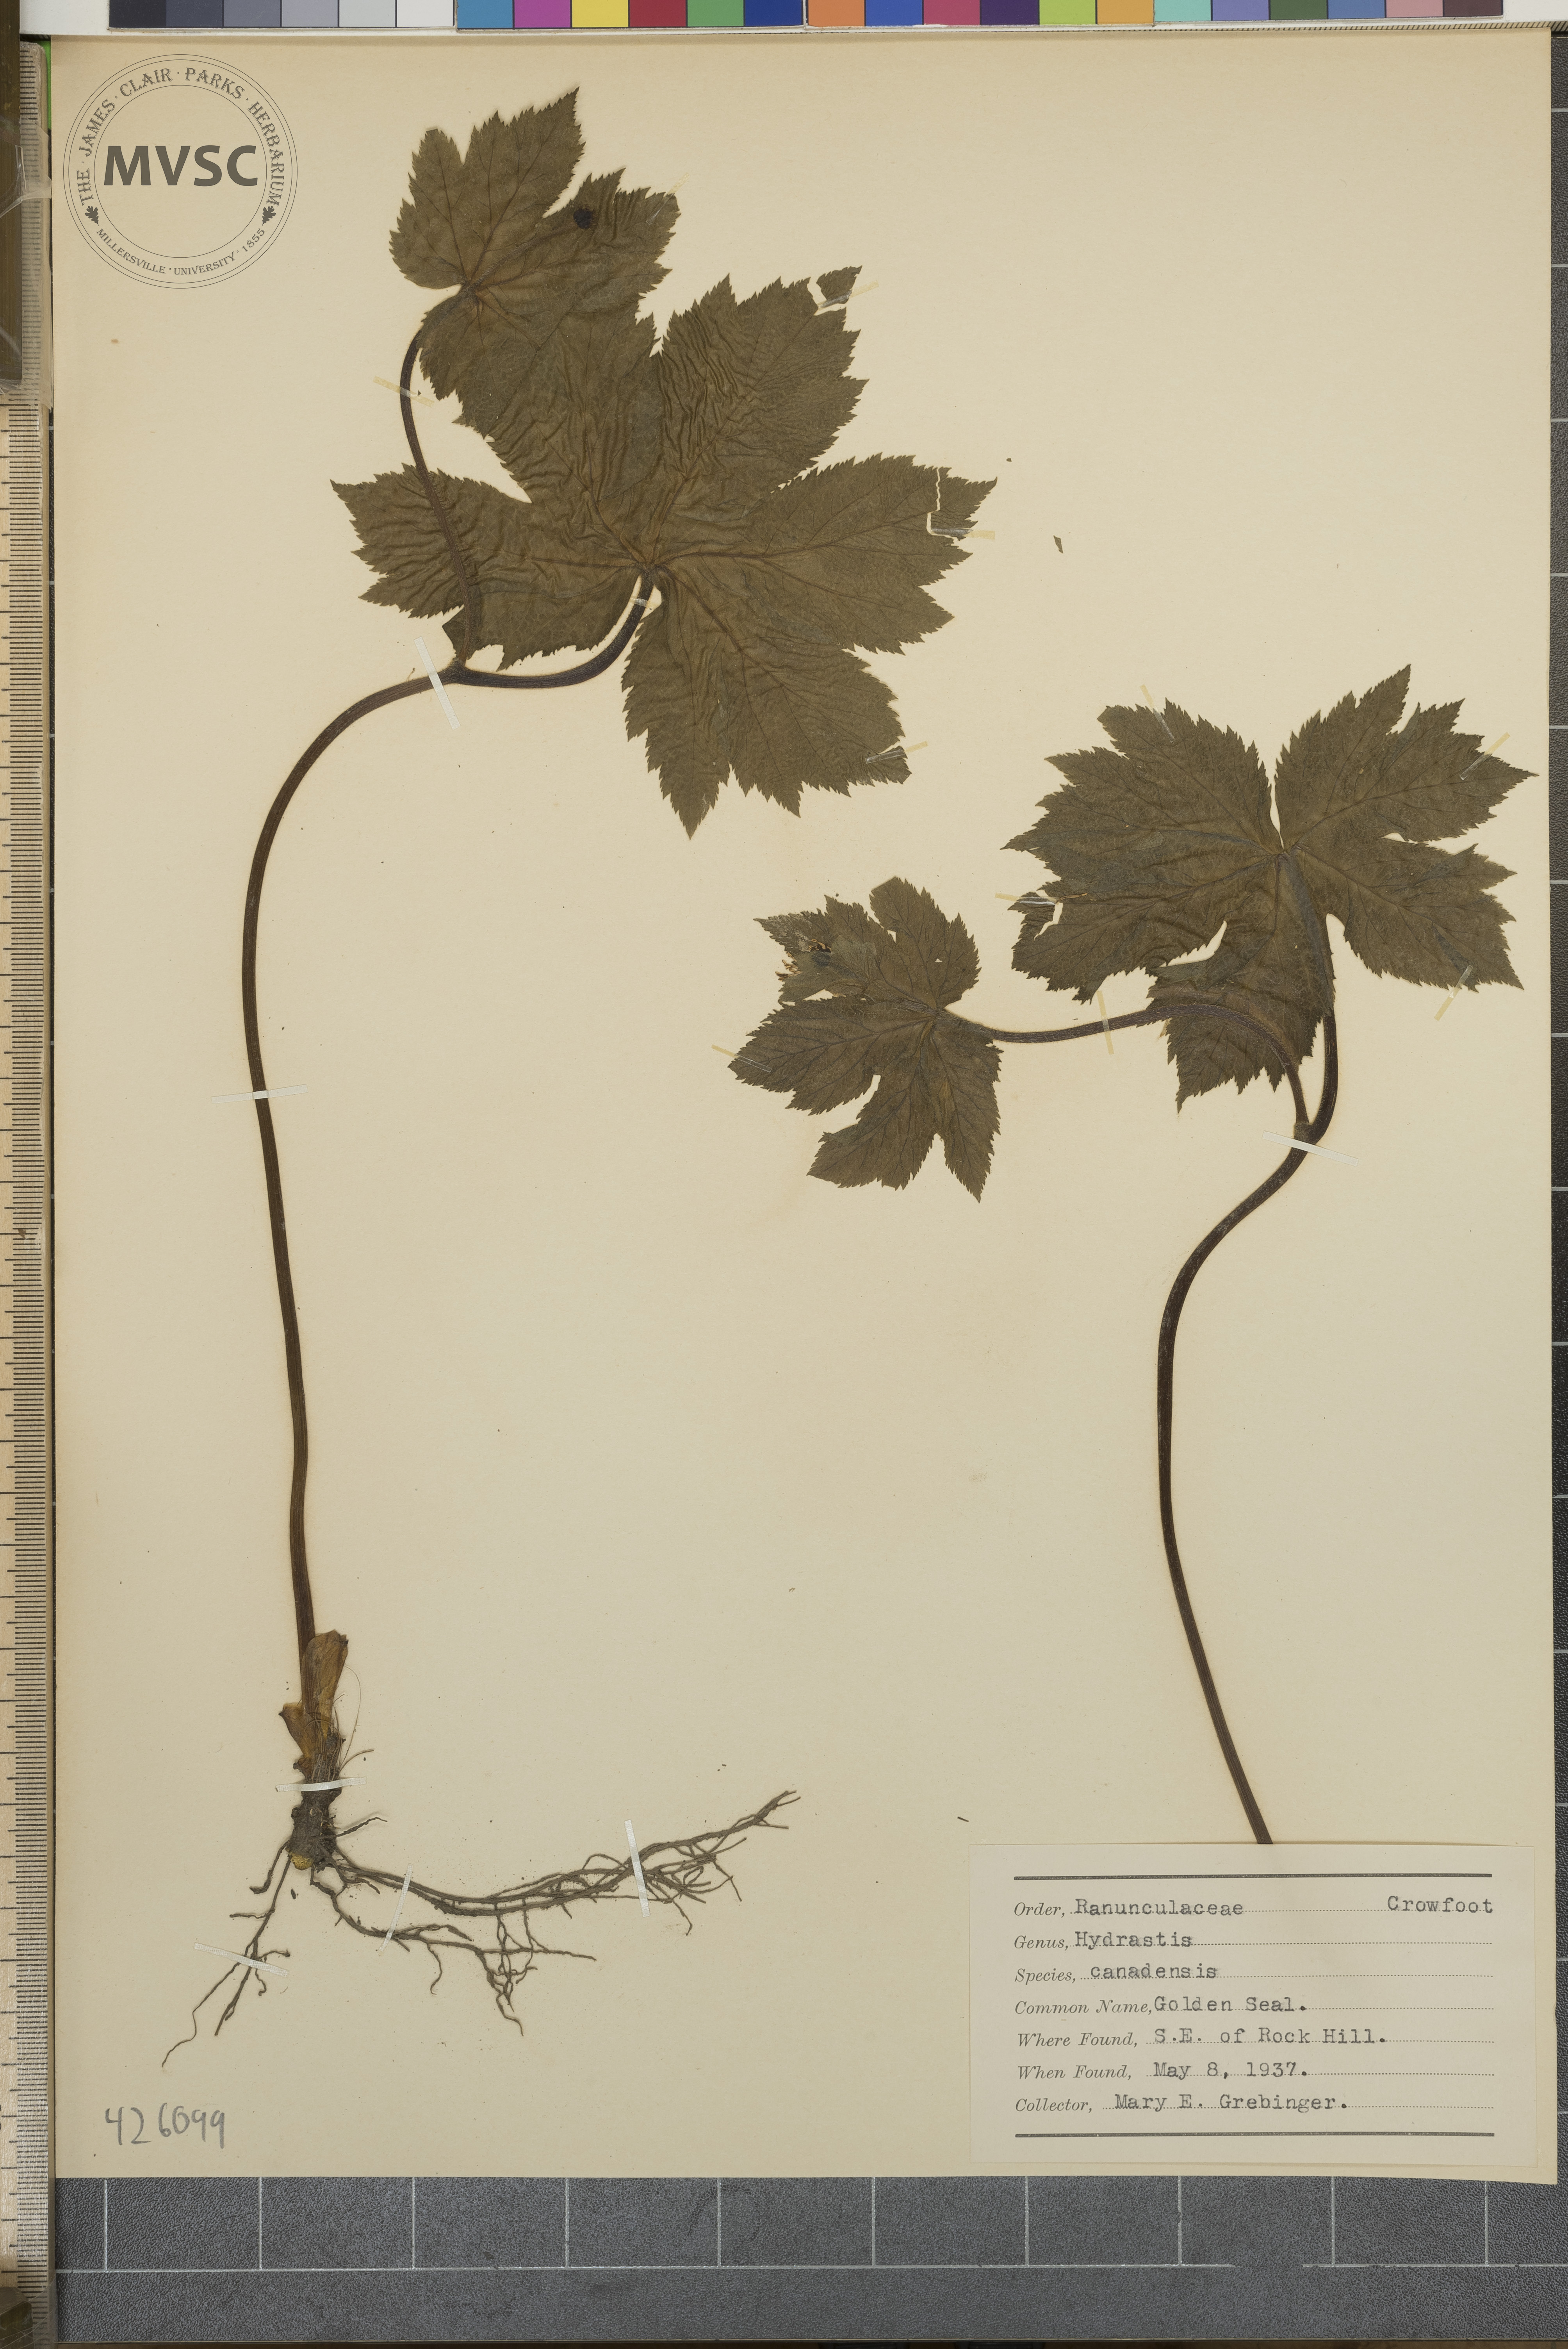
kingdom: Plantae
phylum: Tracheophyta
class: Magnoliopsida
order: Ranunculales
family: Ranunculaceae
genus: Hydrastis
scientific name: Hydrastis canadensis
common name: Golden Seal
